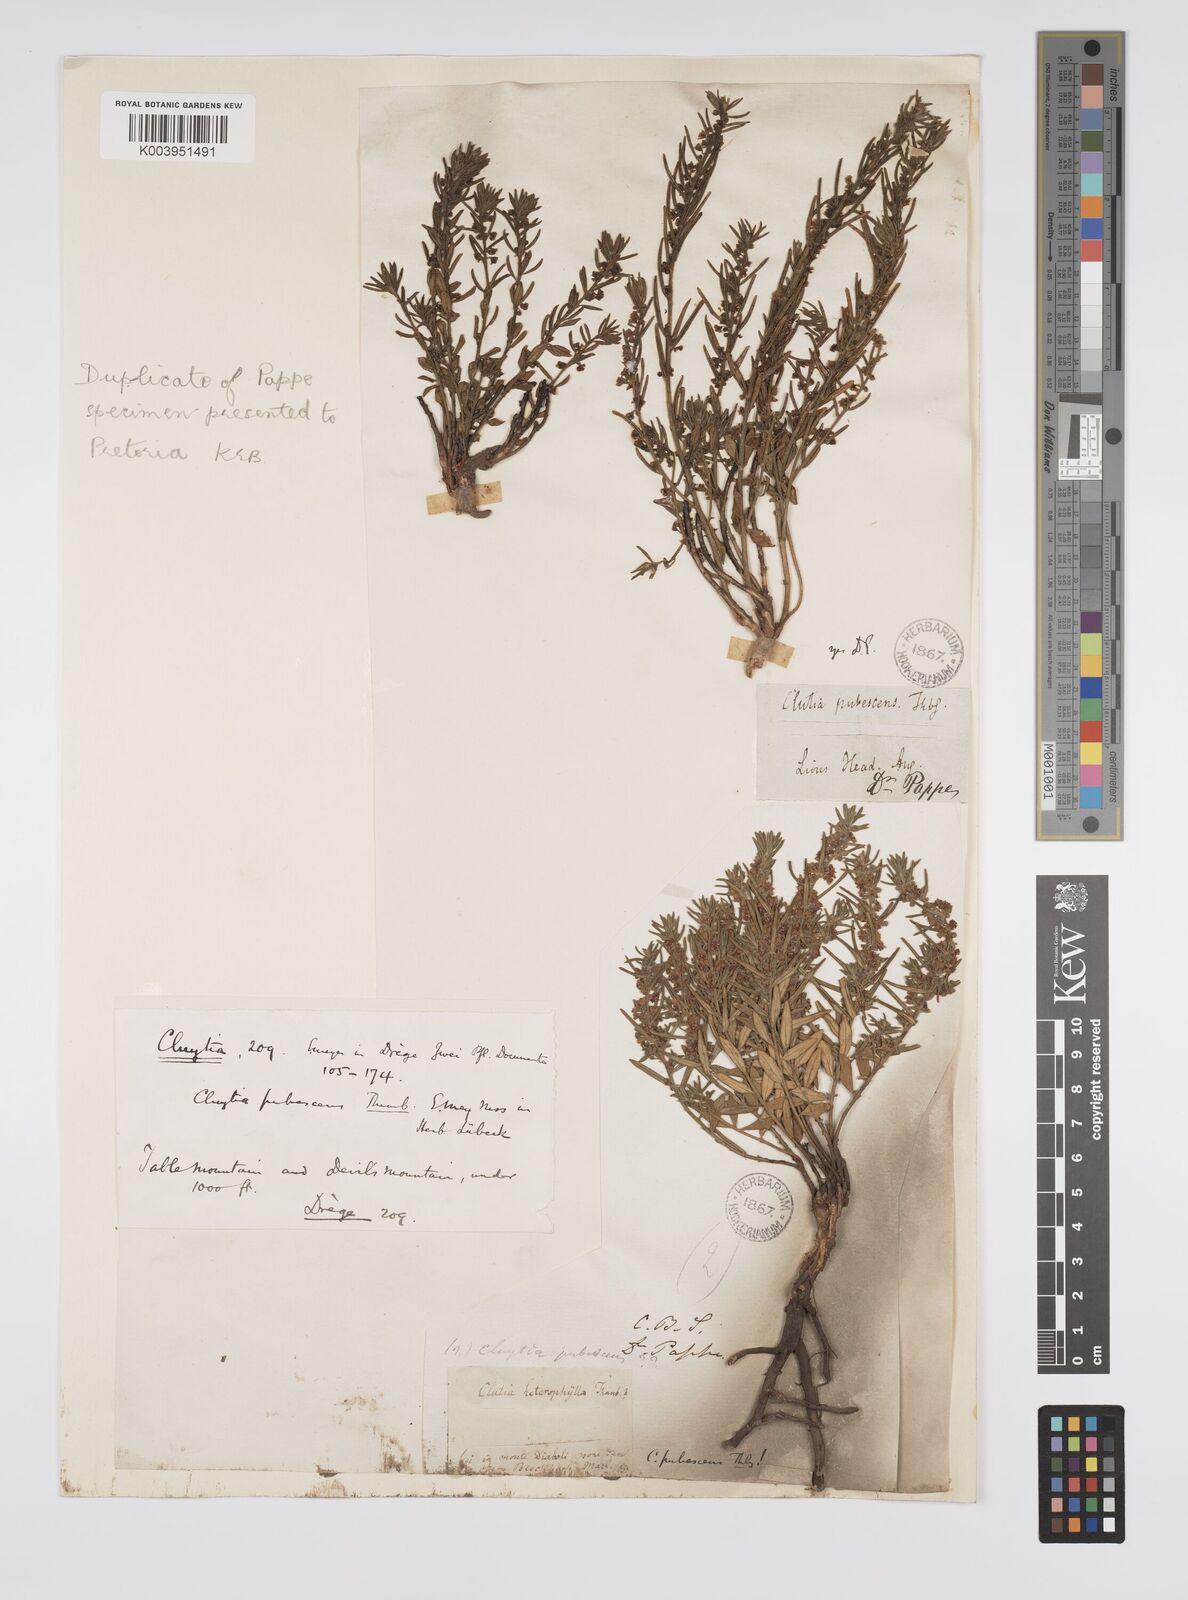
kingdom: Plantae
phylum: Tracheophyta
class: Magnoliopsida
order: Malpighiales
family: Peraceae
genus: Clutia
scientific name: Clutia
